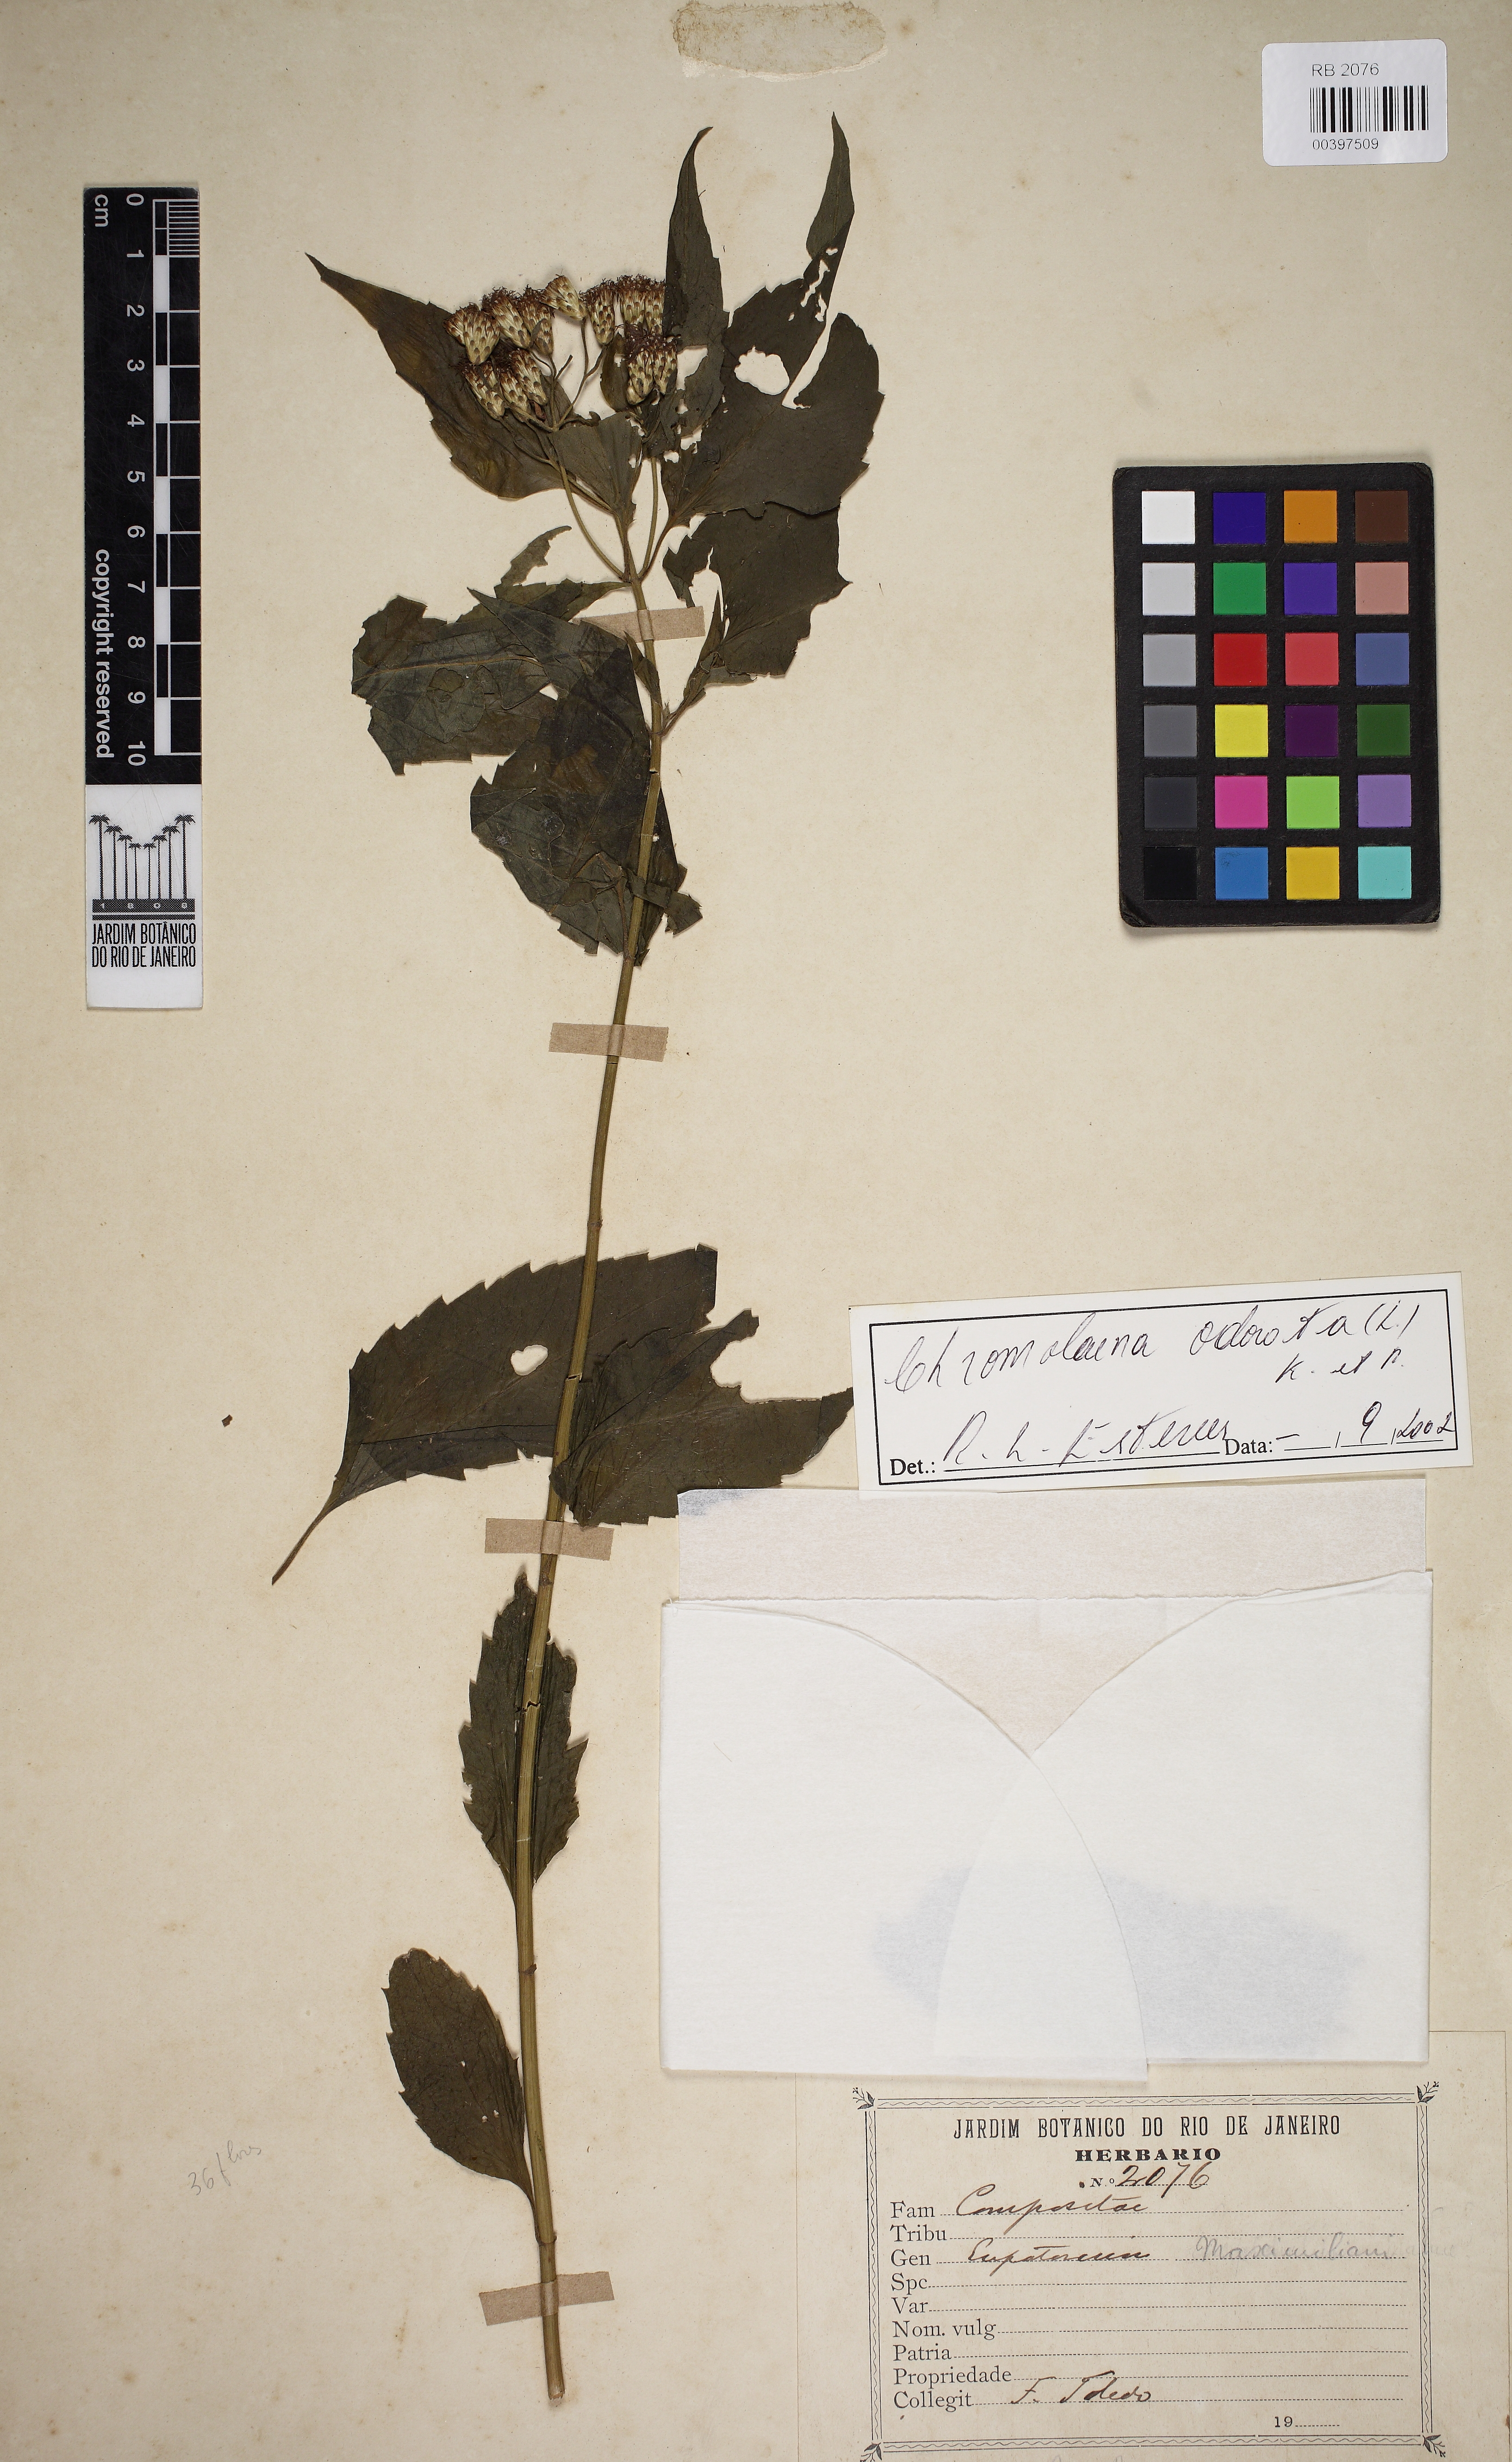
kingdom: Plantae
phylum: Tracheophyta
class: Magnoliopsida
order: Asterales
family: Asteraceae
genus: Chromolaena
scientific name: Chromolaena odorata
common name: Siamweed
